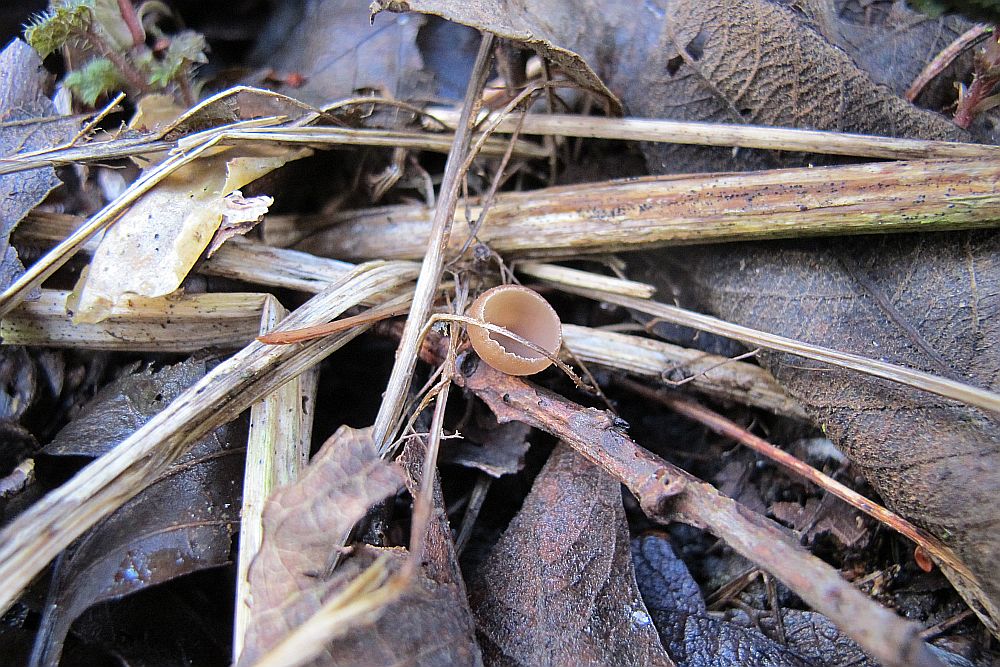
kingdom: Fungi
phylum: Ascomycota
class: Leotiomycetes
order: Helotiales
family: Sclerotiniaceae
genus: Ciboria
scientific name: Ciboria amentacea
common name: ellerakle-knoldskive
